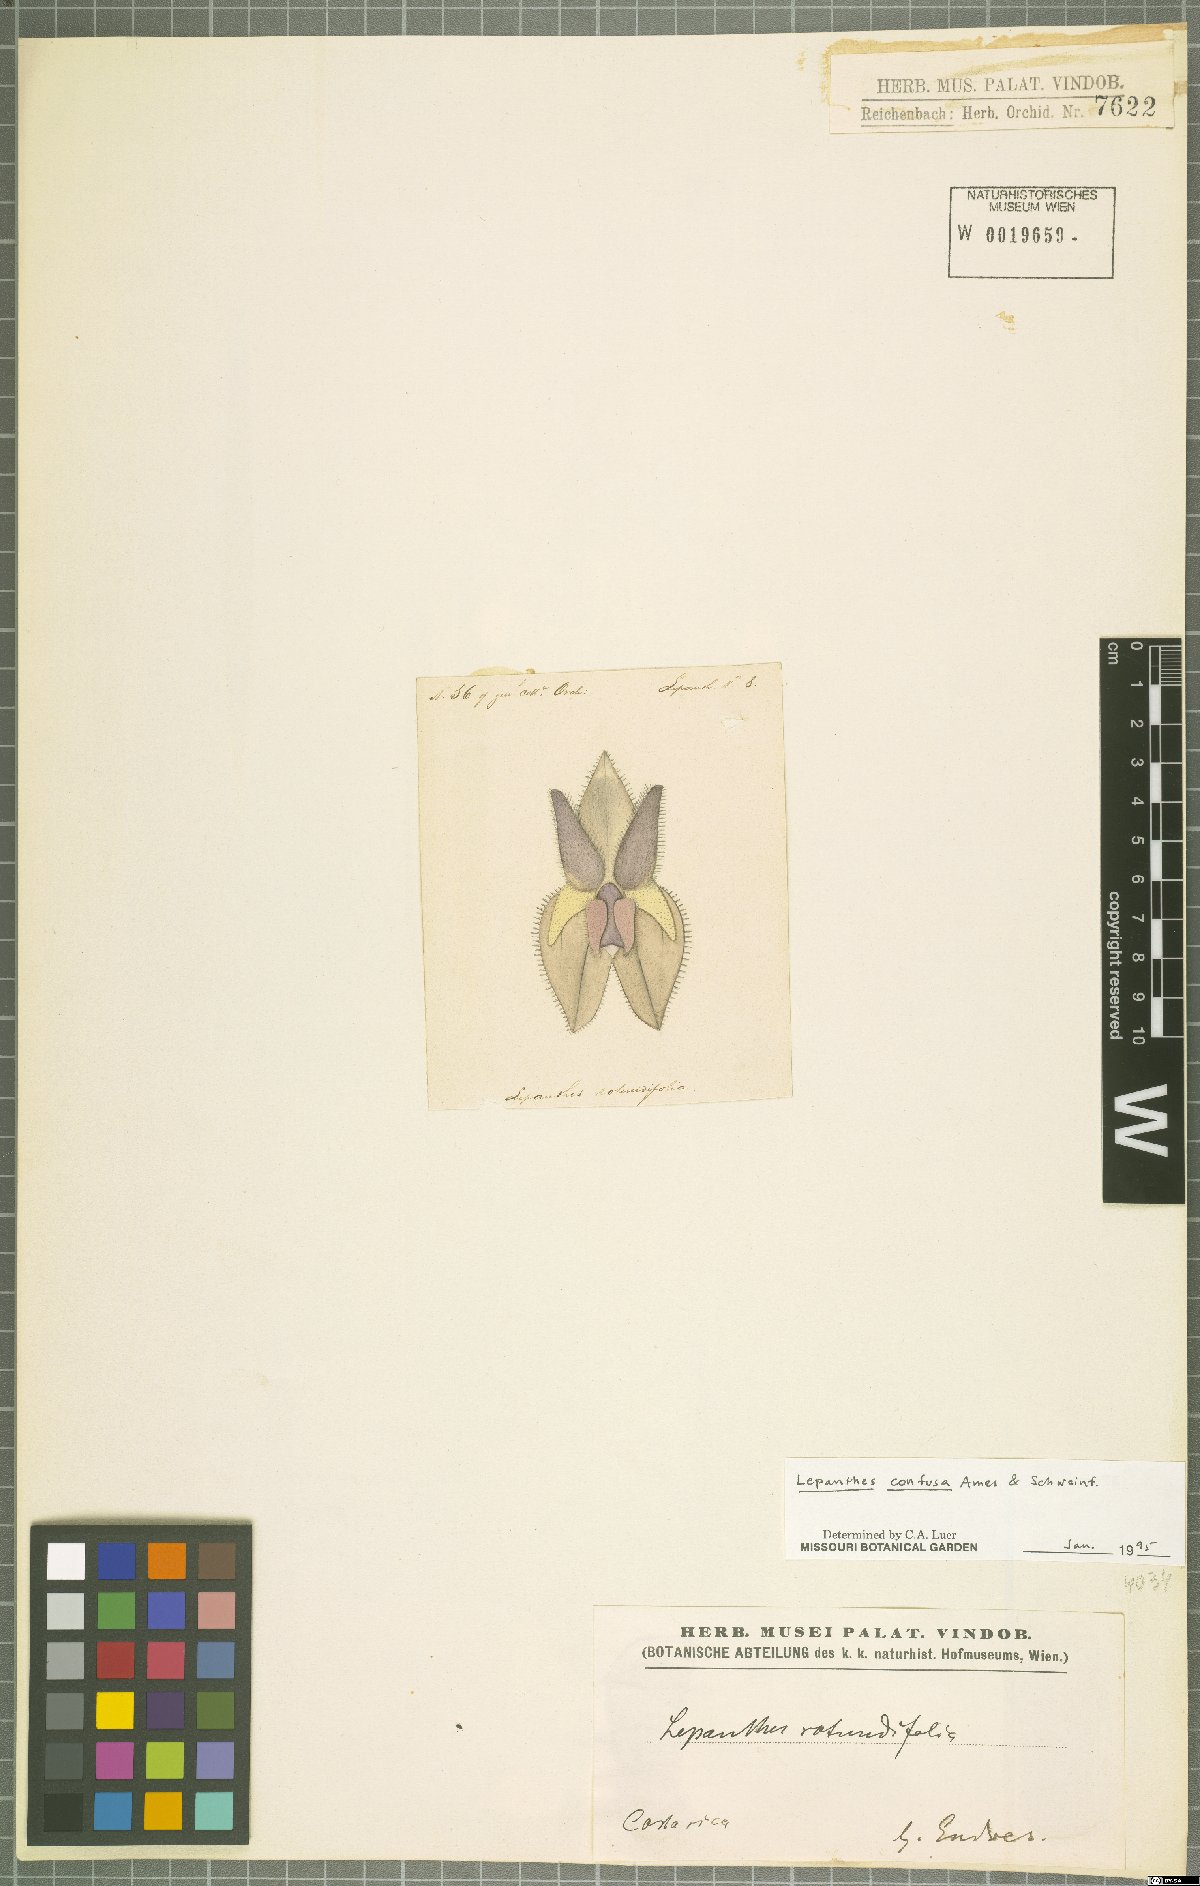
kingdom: Plantae
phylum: Tracheophyta
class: Liliopsida
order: Asparagales
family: Orchidaceae
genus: Lepanthes
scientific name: Lepanthes confusa
